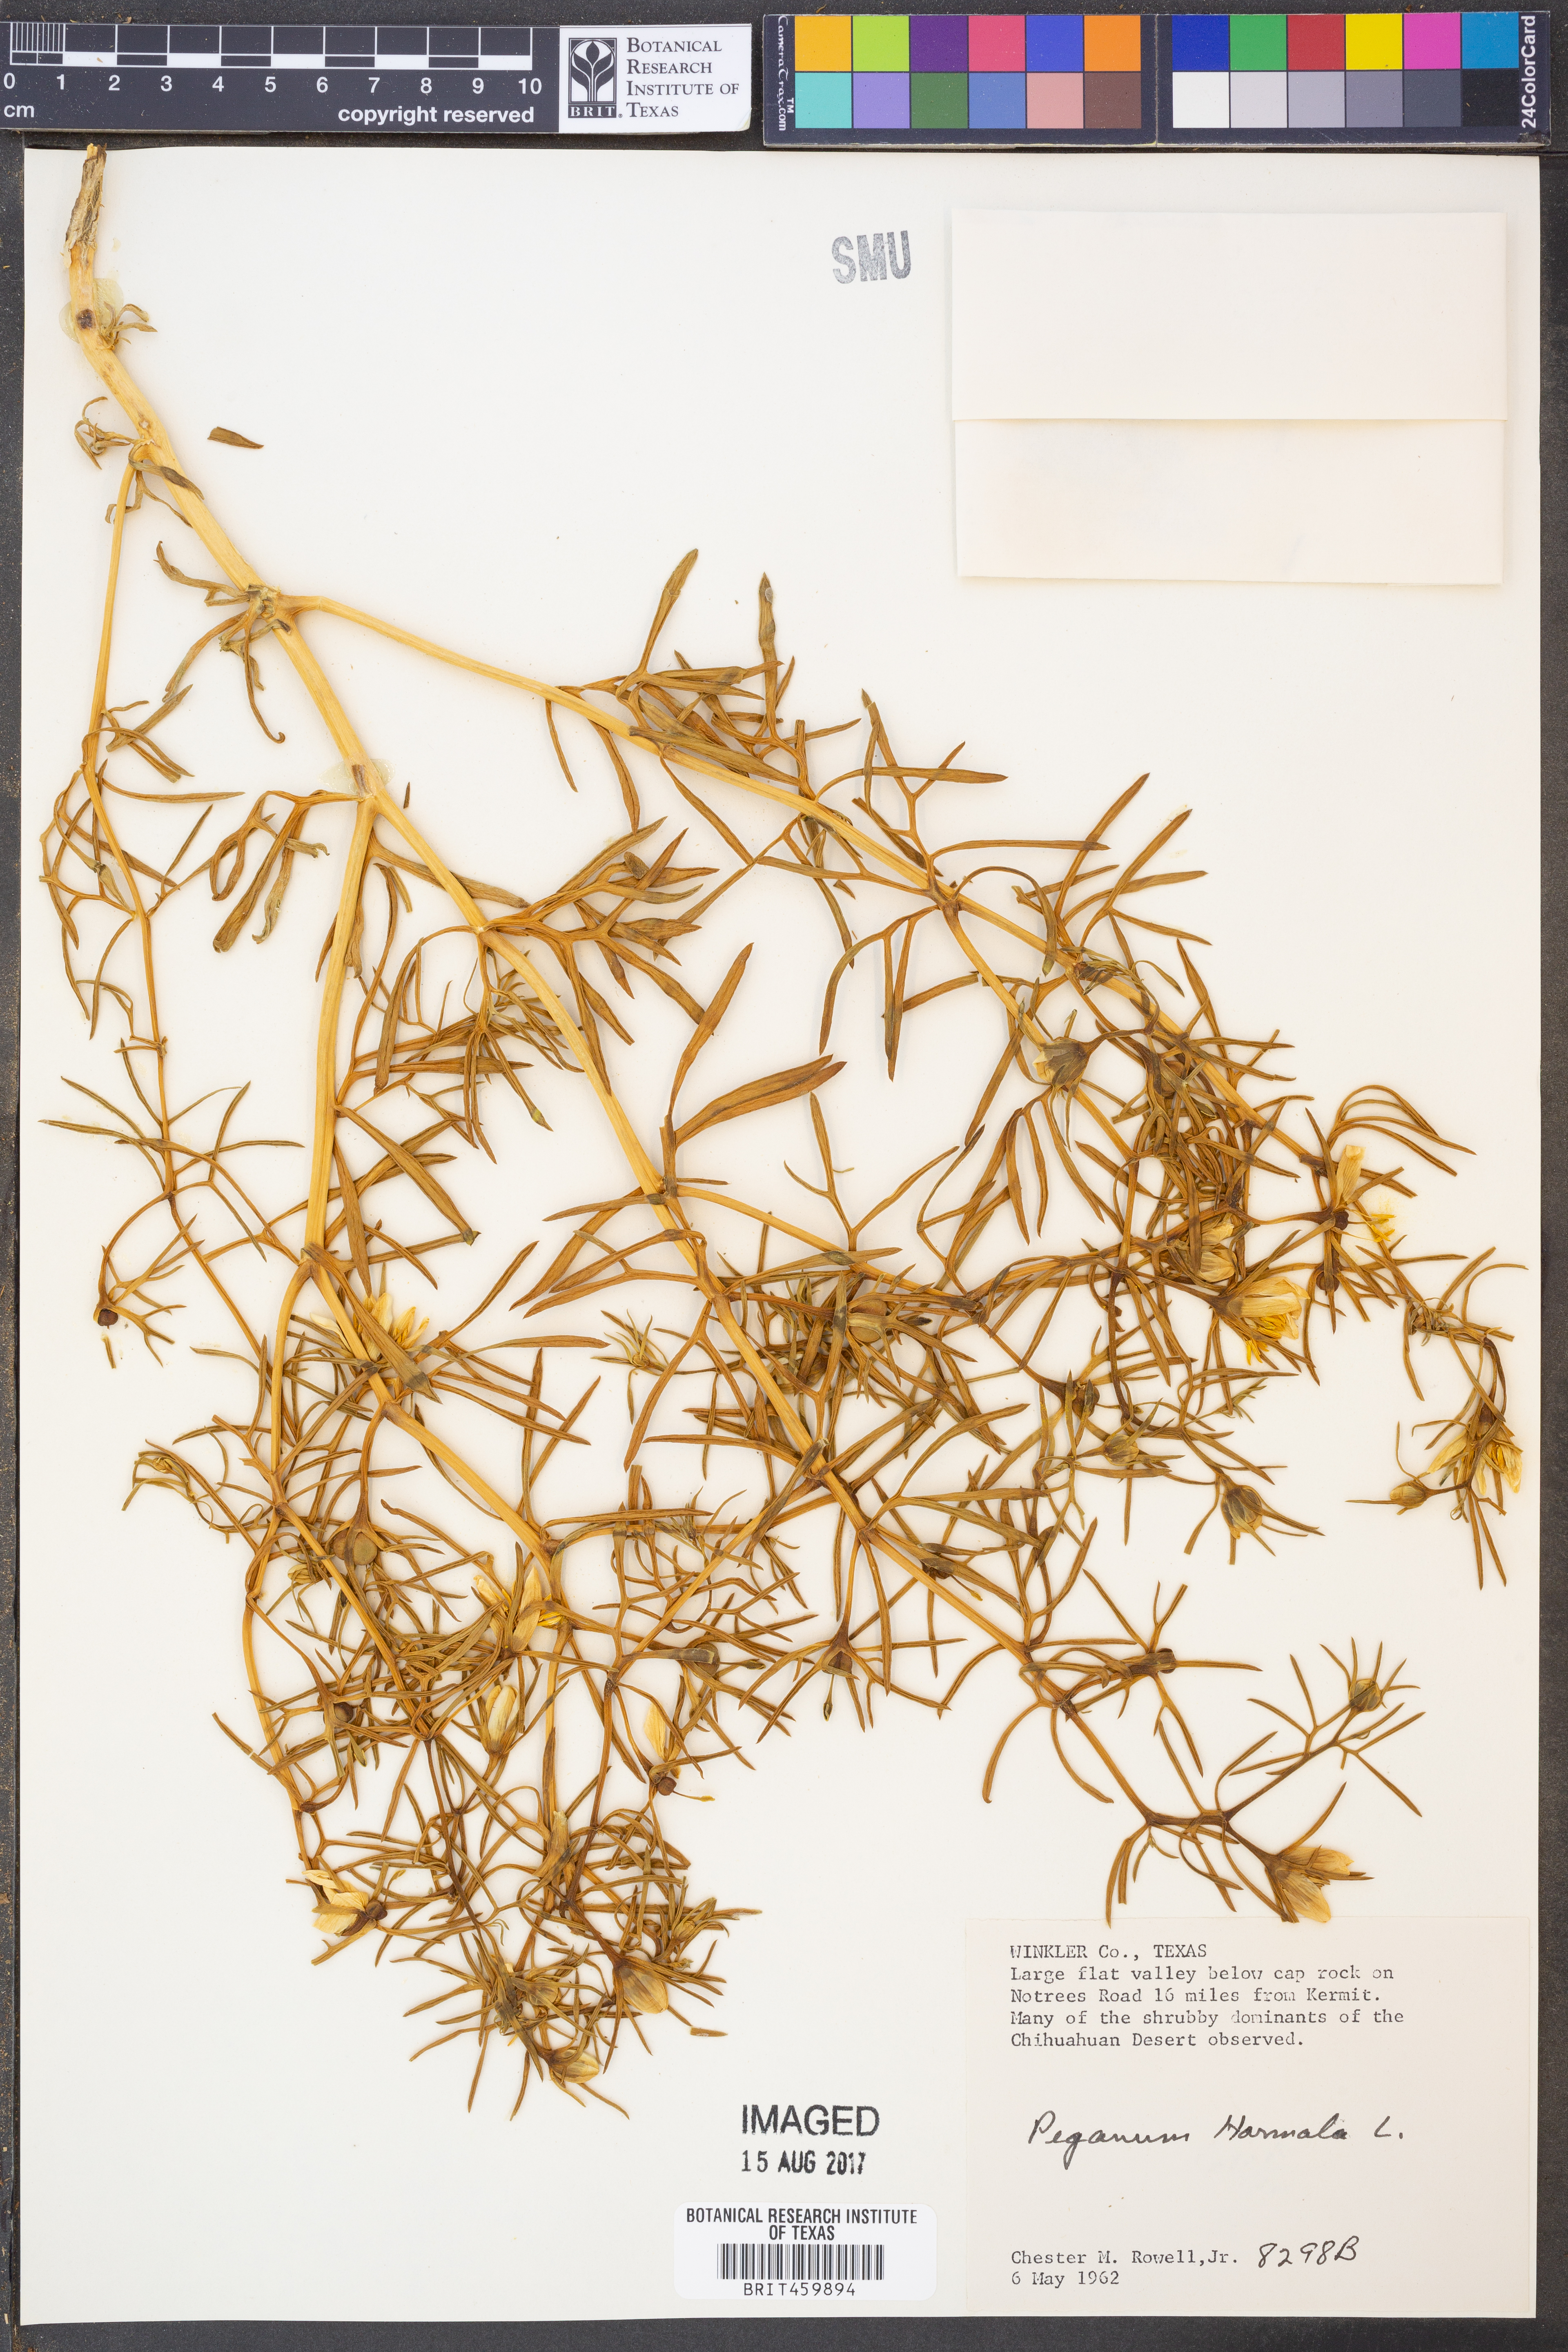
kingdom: Plantae
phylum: Tracheophyta
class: Magnoliopsida
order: Sapindales
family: Tetradiclidaceae
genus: Peganum
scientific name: Peganum harmala
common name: Harmal peganum
